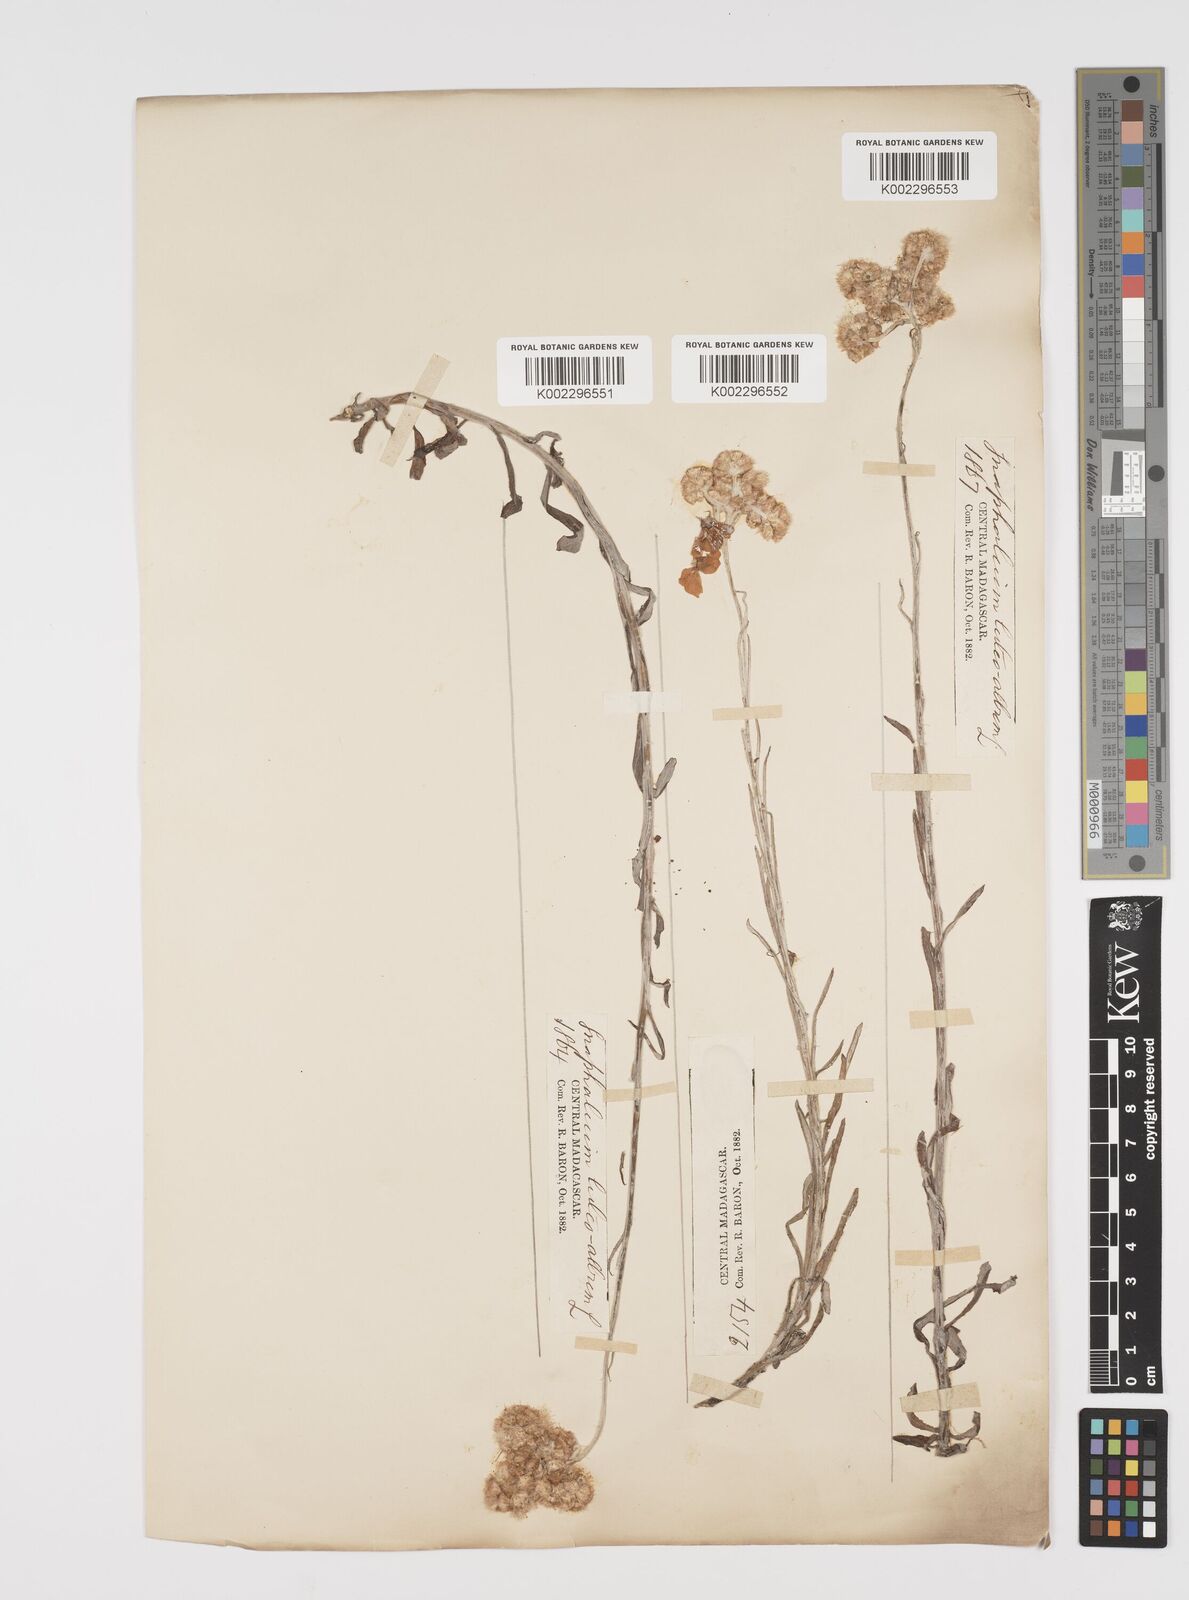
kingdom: Plantae
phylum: Tracheophyta
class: Magnoliopsida
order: Asterales
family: Asteraceae
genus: Helichrysum
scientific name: Helichrysum luteoalbum
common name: Daisy
